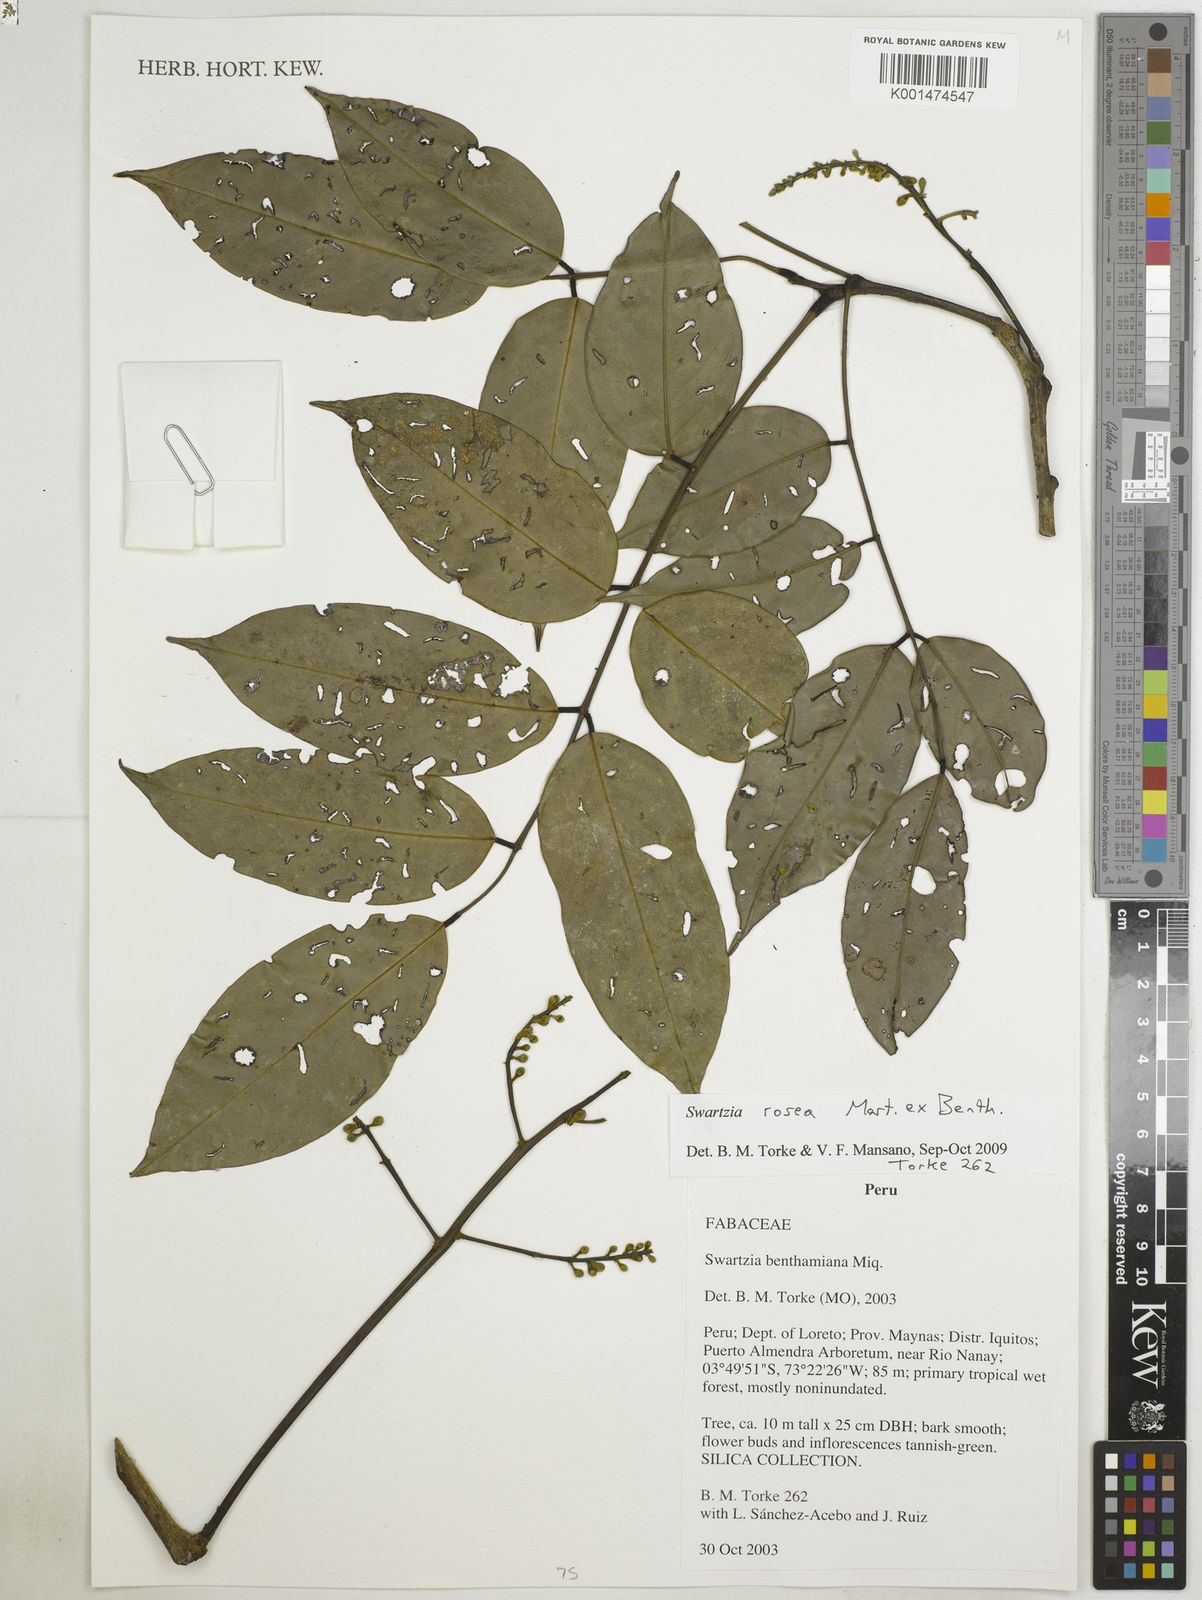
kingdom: Plantae
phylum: Tracheophyta
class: Magnoliopsida
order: Fabales
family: Fabaceae
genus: Swartzia
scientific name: Swartzia rosea
